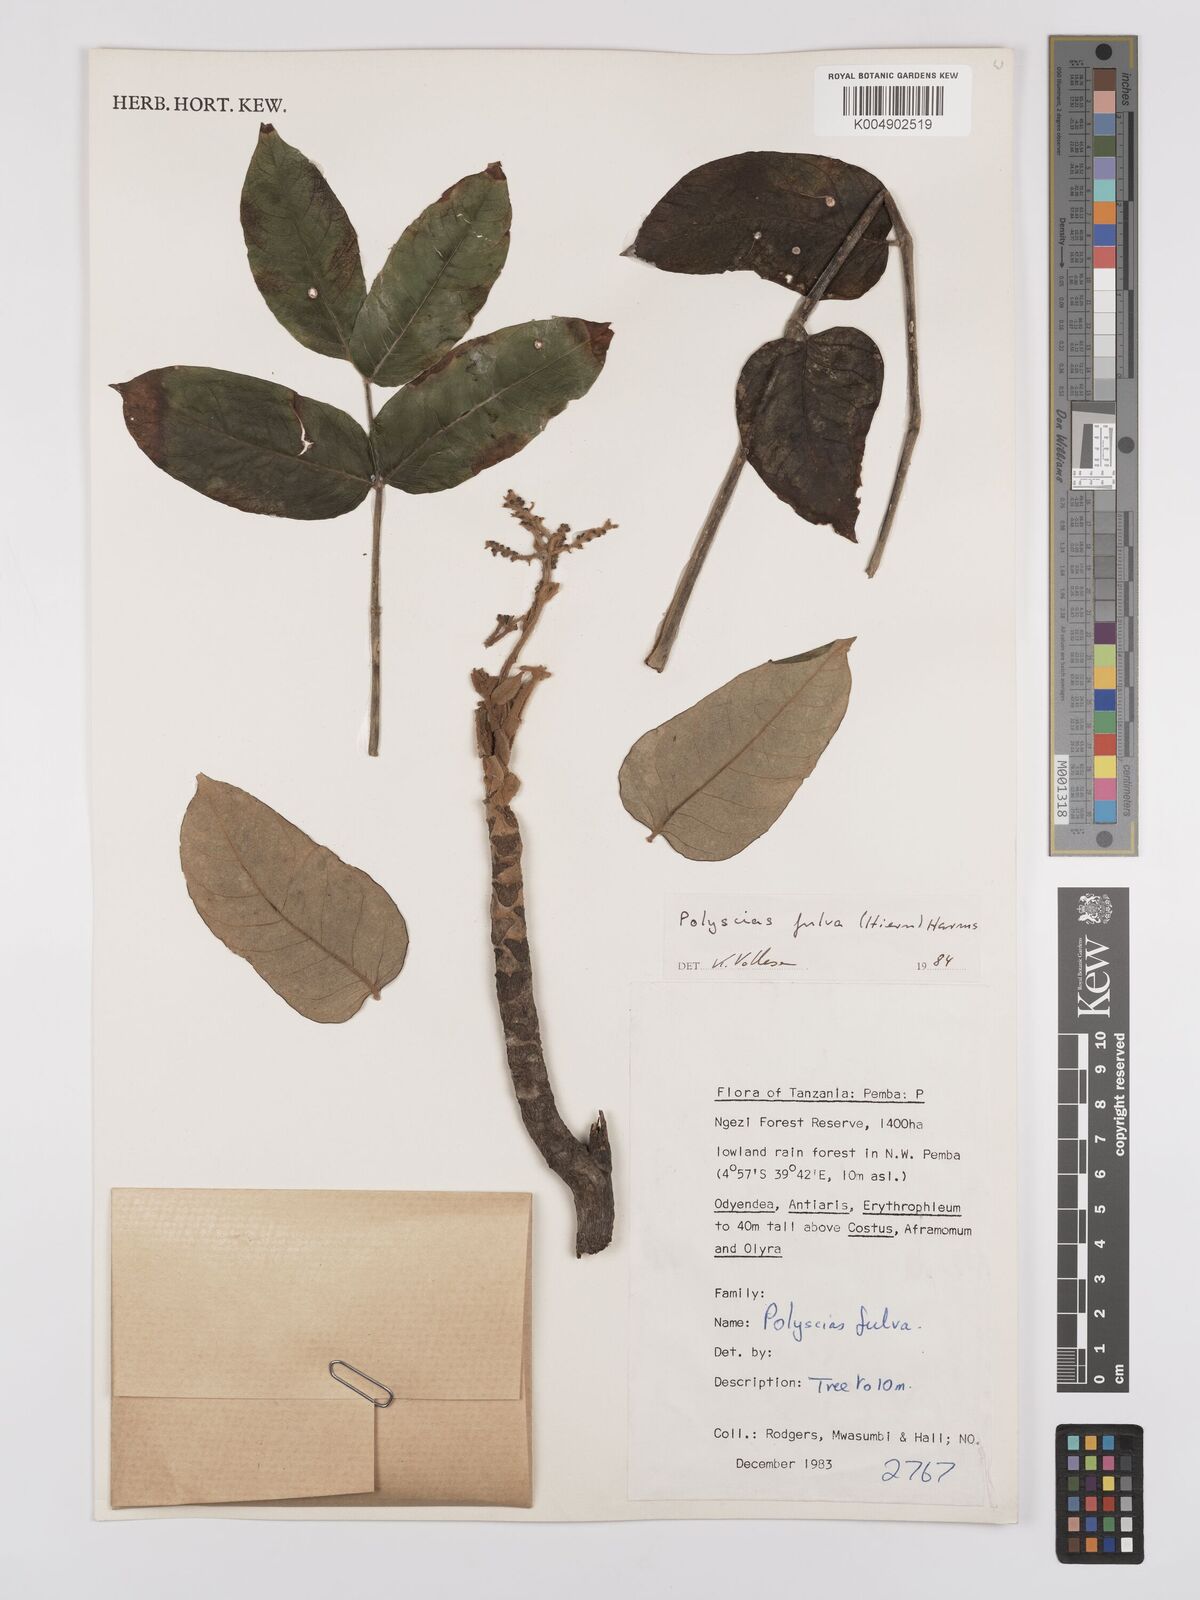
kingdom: Plantae
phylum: Tracheophyta
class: Magnoliopsida
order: Apiales
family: Araliaceae
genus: Polyscias
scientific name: Polyscias fulva
